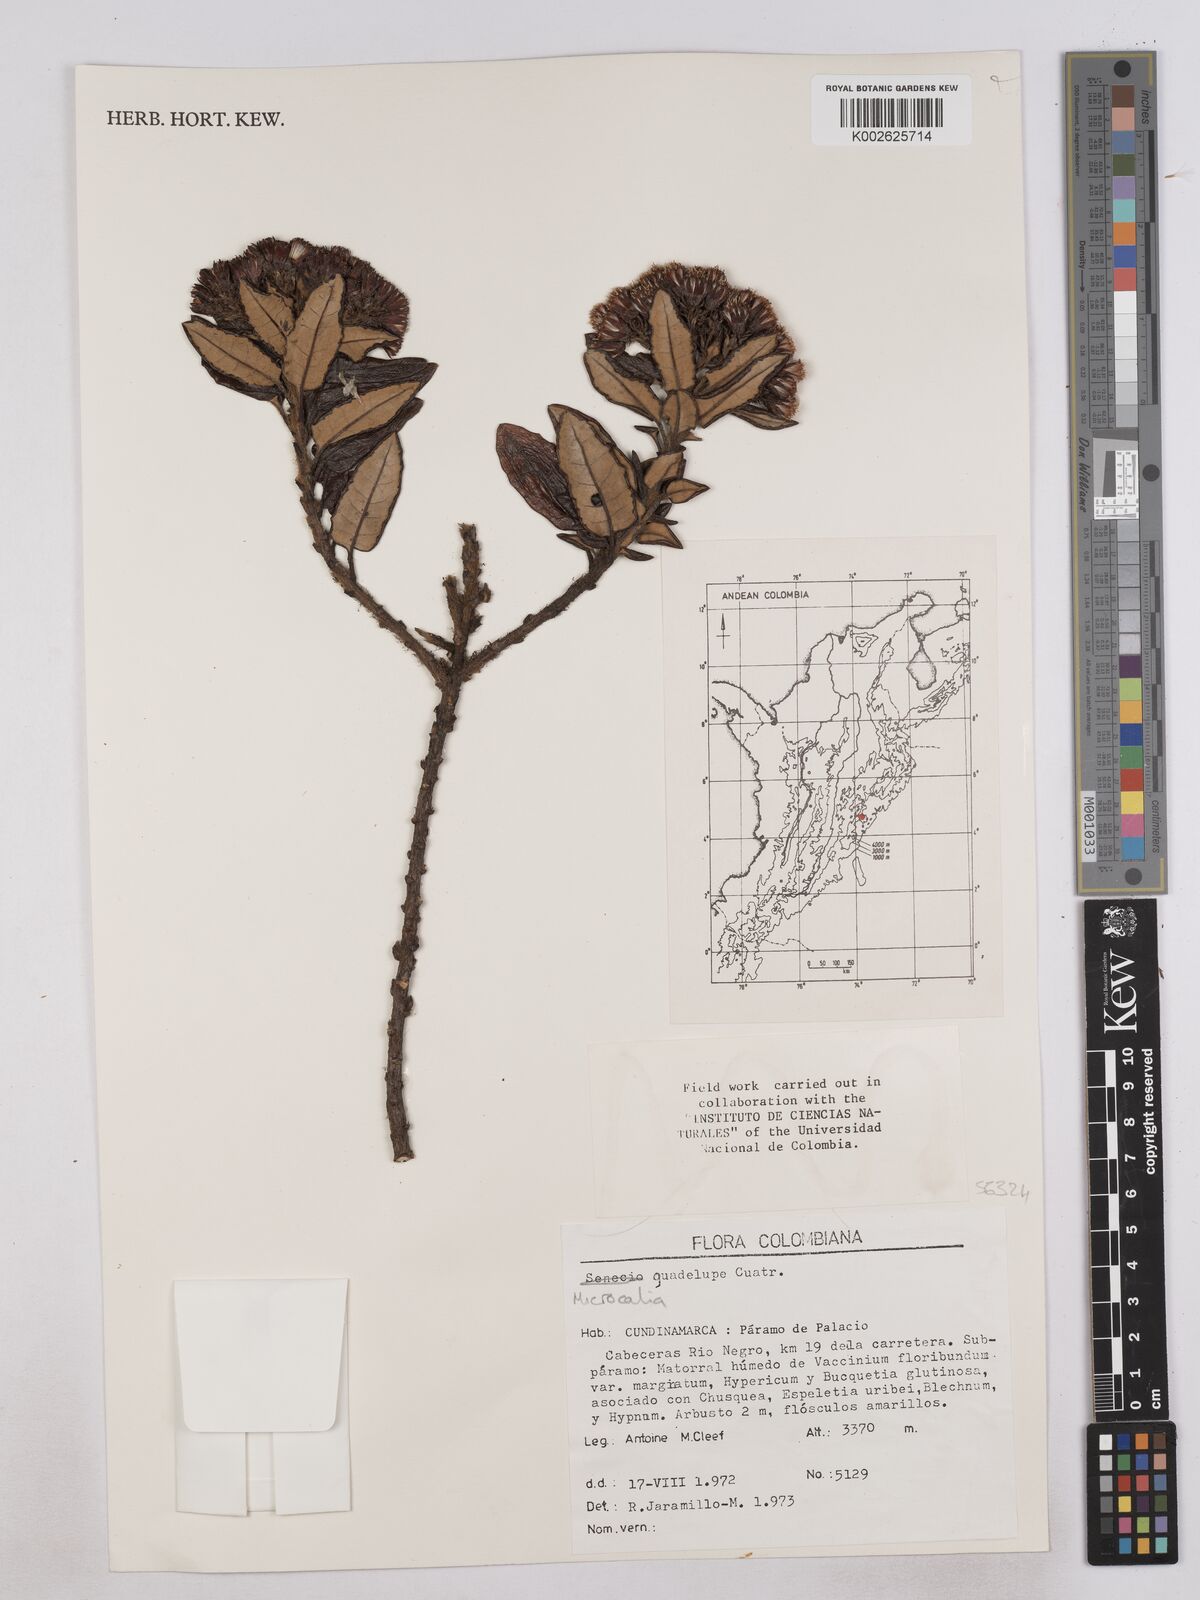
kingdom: Plantae
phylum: Tracheophyta
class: Magnoliopsida
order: Asterales
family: Asteraceae
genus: Monticalia
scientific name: Monticalia guadalupe
